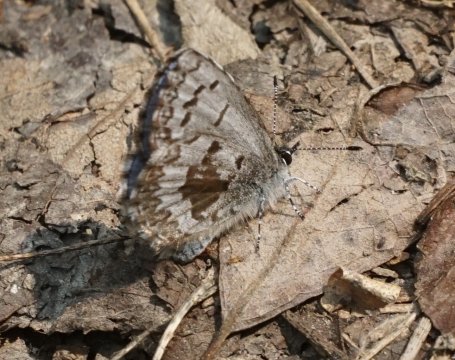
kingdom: Animalia
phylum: Arthropoda
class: Insecta
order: Lepidoptera
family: Lycaenidae
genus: Celastrina
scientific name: Celastrina lucia
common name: Northern Spring Azure
